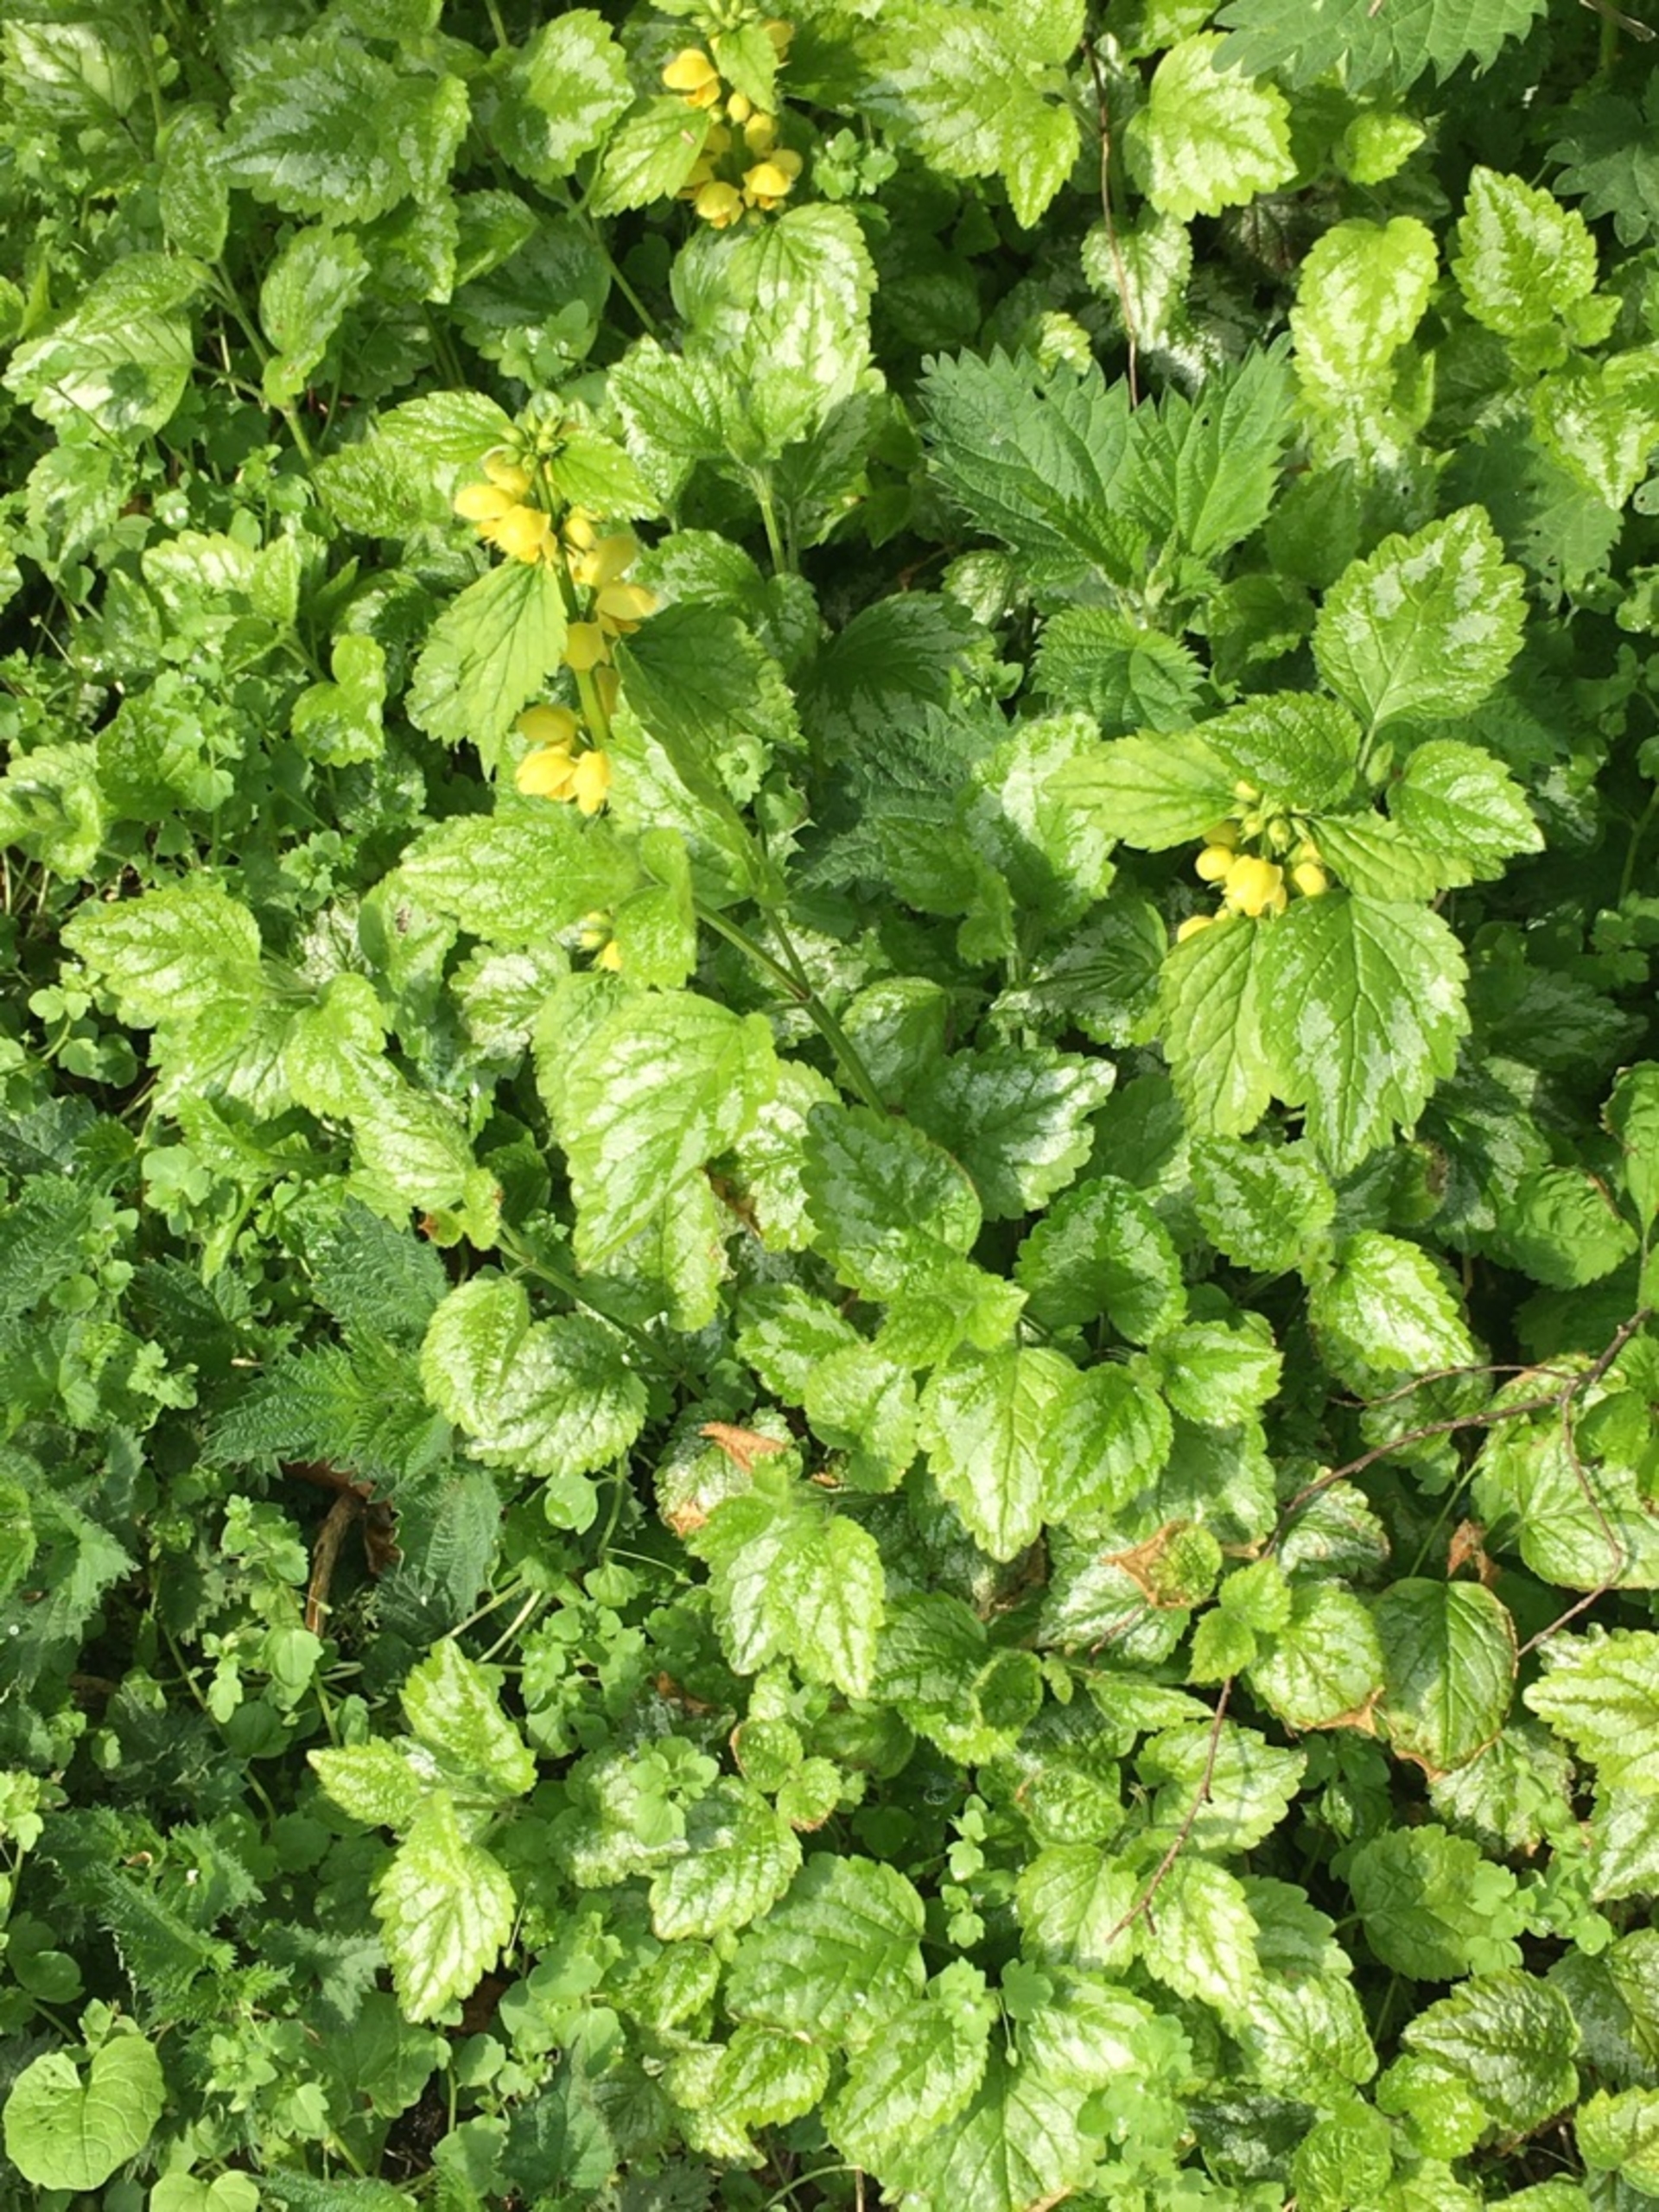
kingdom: Plantae
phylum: Tracheophyta
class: Magnoliopsida
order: Lamiales
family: Lamiaceae
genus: Lamium
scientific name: Lamium galeobdolon
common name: Have-guldnælde
